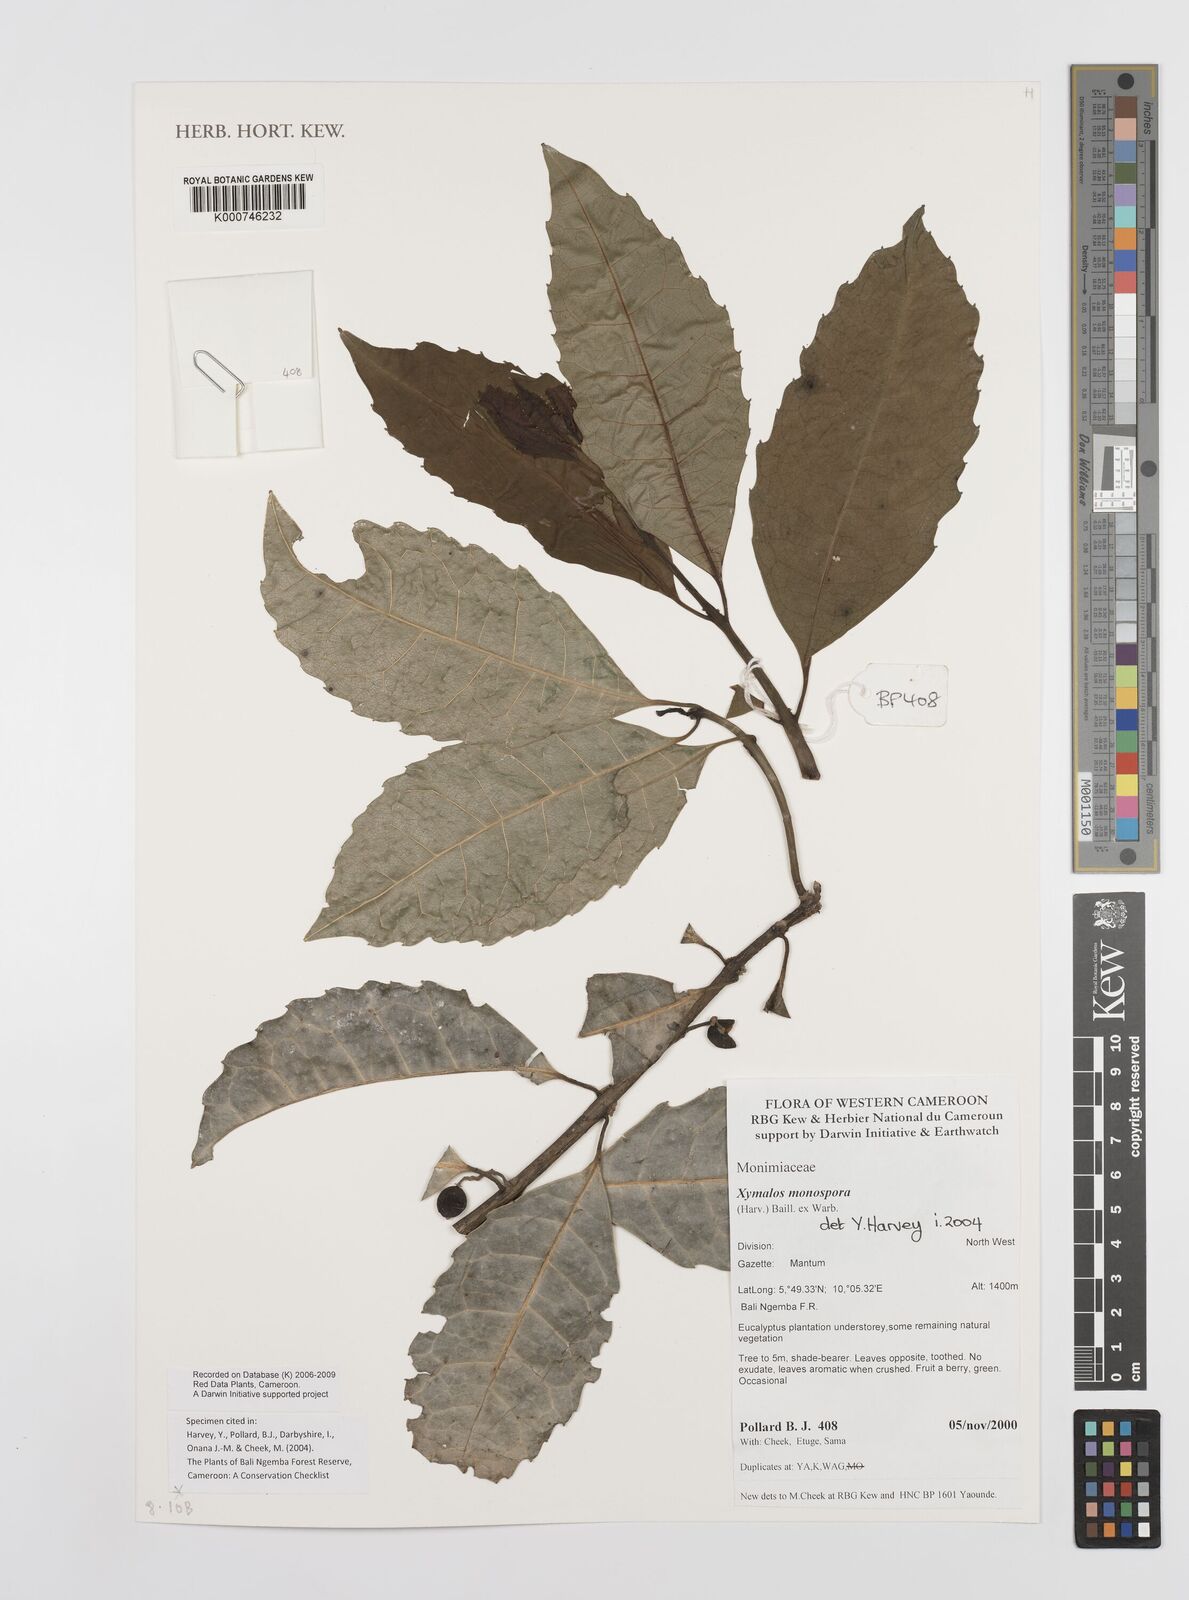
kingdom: Plantae
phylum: Tracheophyta
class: Magnoliopsida
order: Laurales
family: Monimiaceae
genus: Xymalos
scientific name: Xymalos
